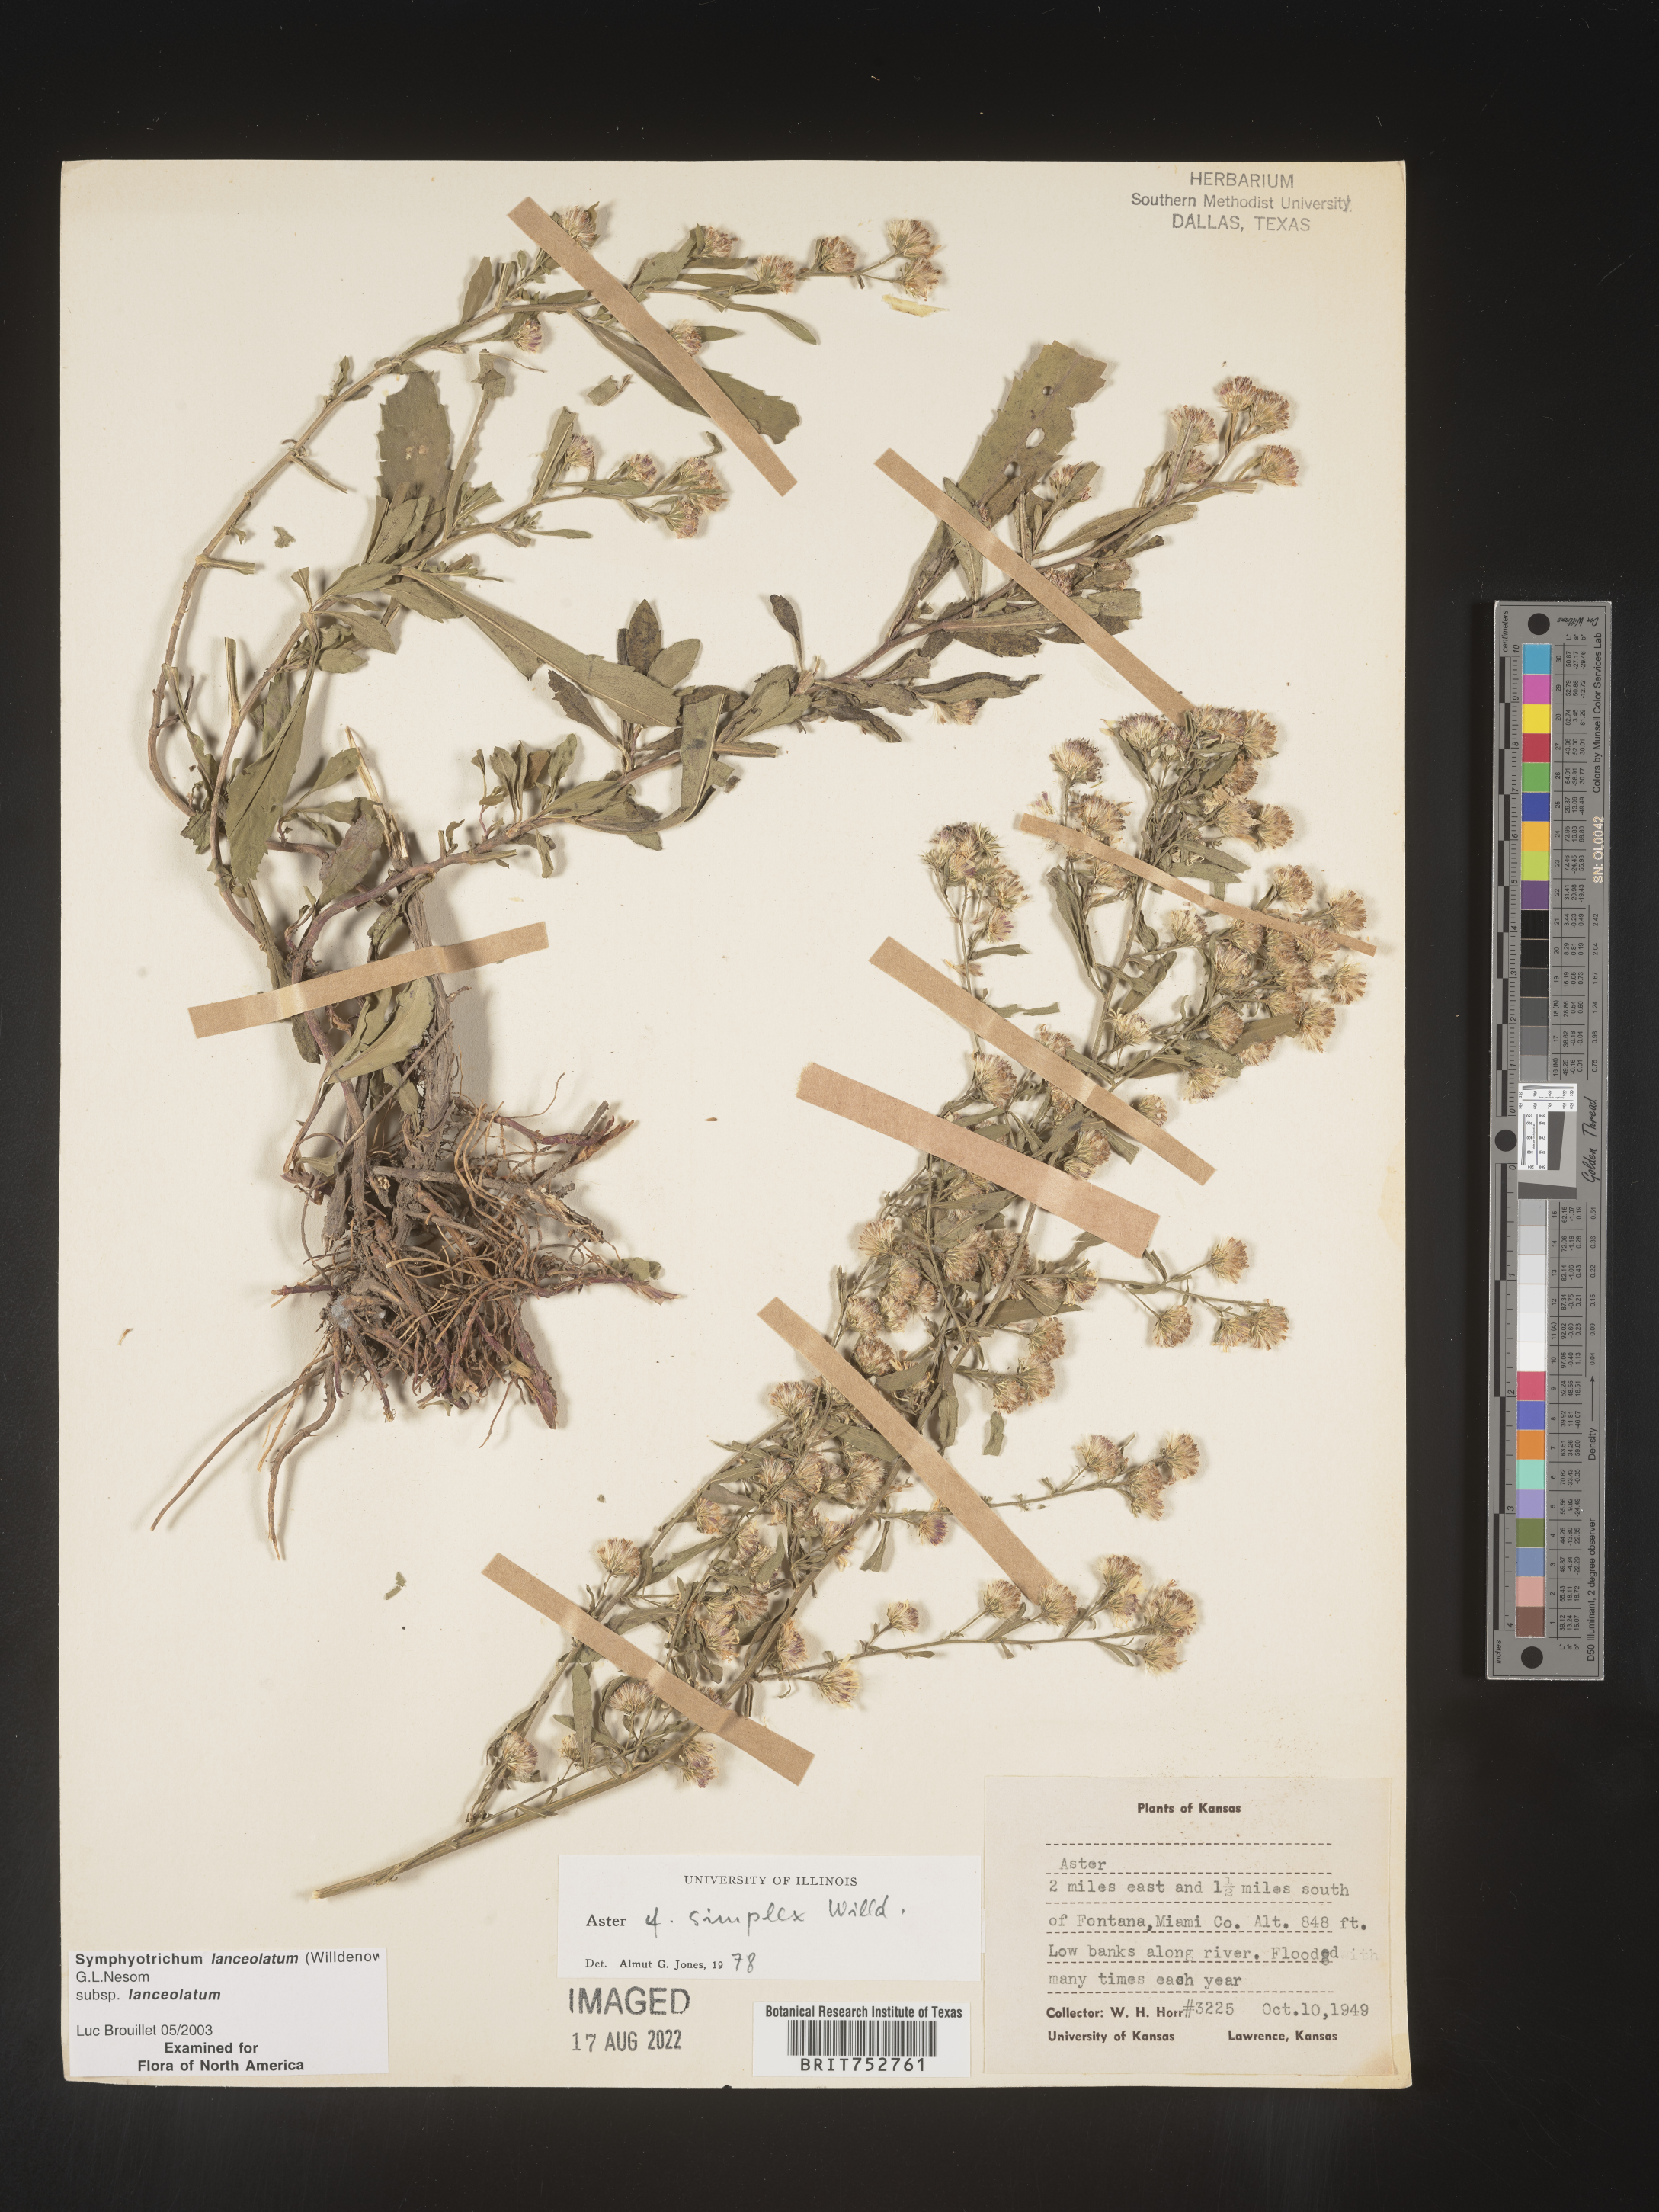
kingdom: Plantae
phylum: Tracheophyta
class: Magnoliopsida
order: Asterales
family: Asteraceae
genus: Symphyotrichum
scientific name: Symphyotrichum lanceolatum
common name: Panicled aster
